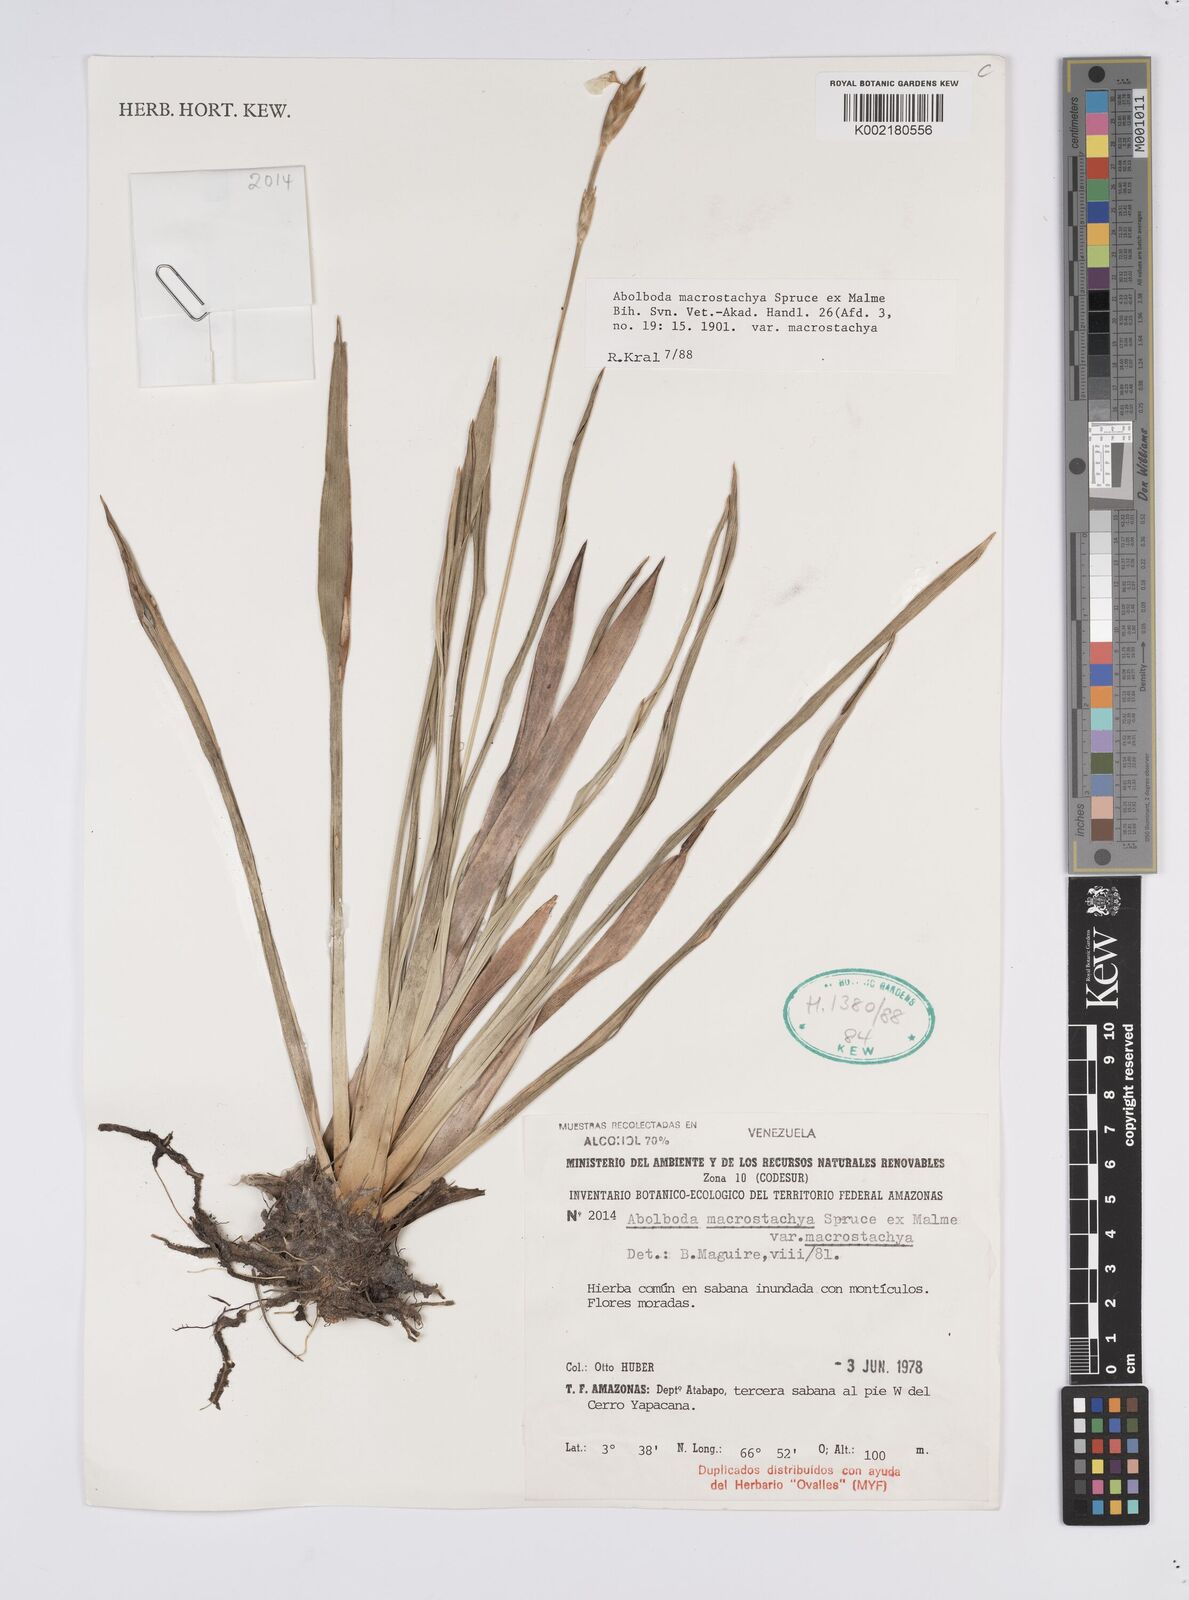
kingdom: Plantae
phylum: Tracheophyta
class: Liliopsida
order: Poales
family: Xyridaceae
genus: Abolboda
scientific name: Abolboda macrostachya
